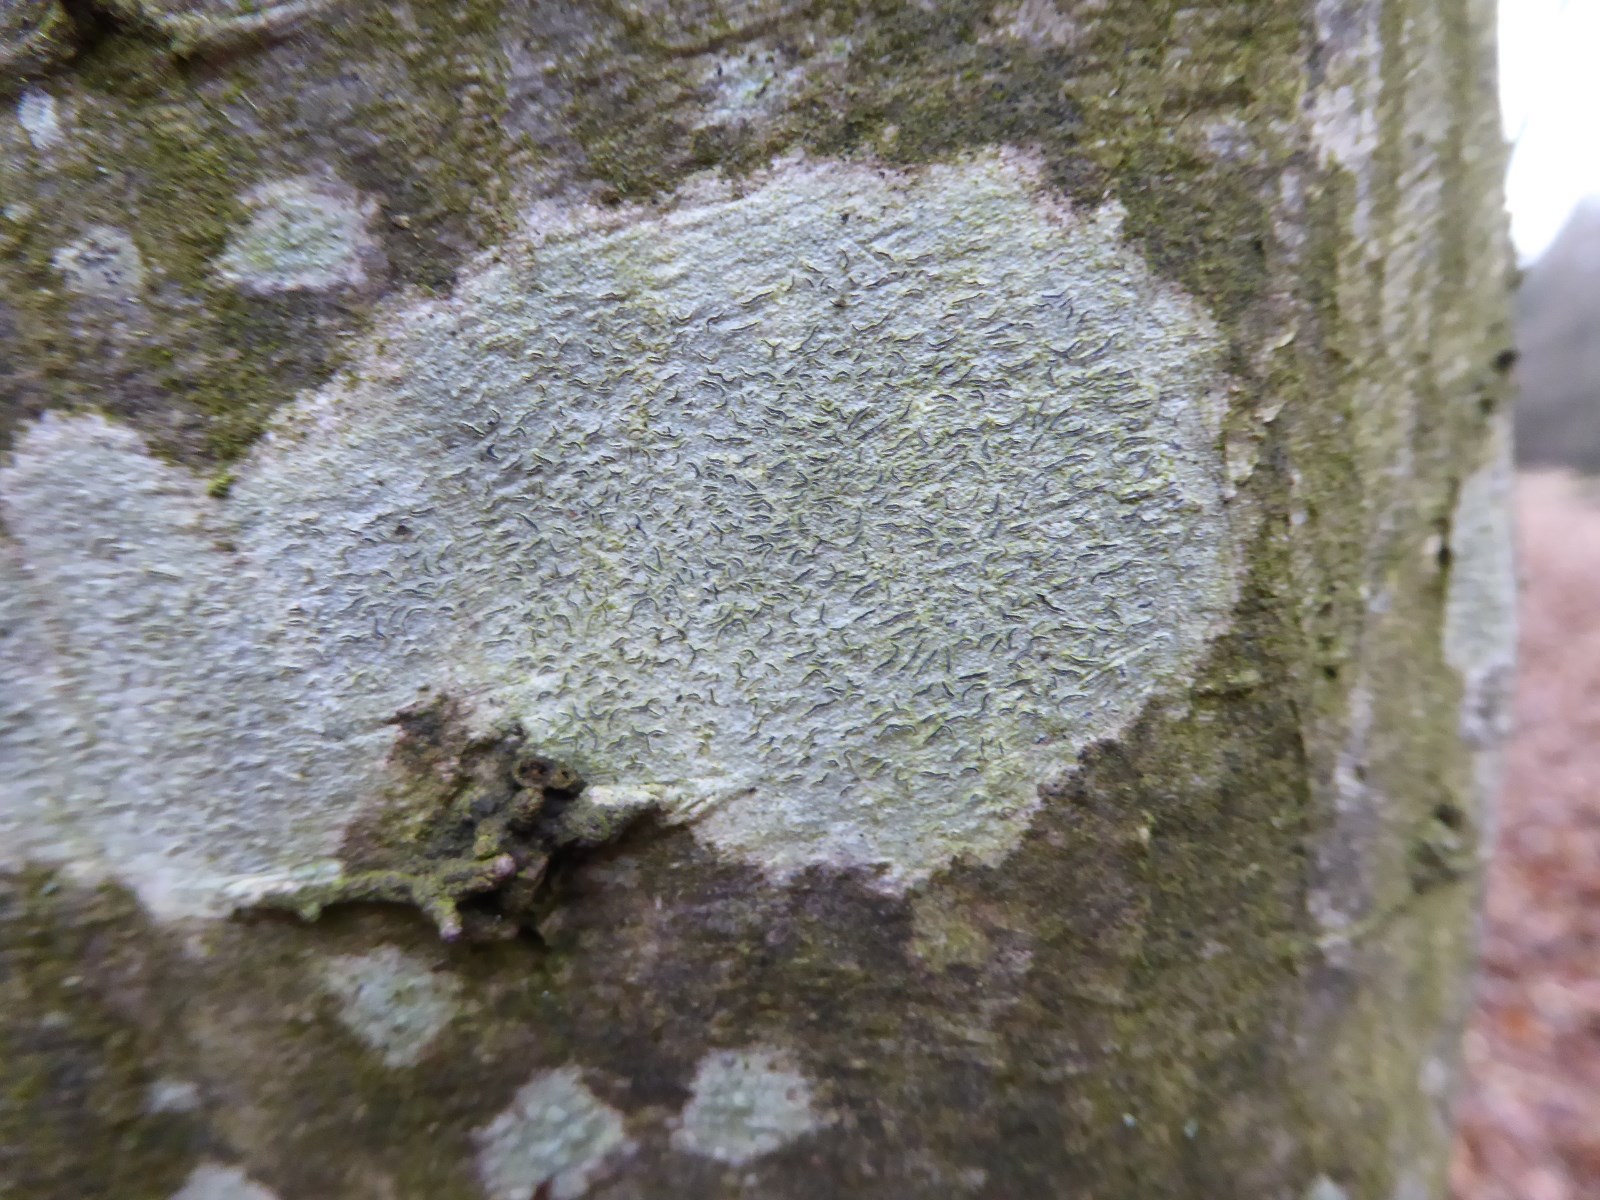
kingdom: Fungi
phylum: Ascomycota
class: Lecanoromycetes
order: Ostropales
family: Graphidaceae
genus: Graphis
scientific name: Graphis scripta
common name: almindelig skriftlav
